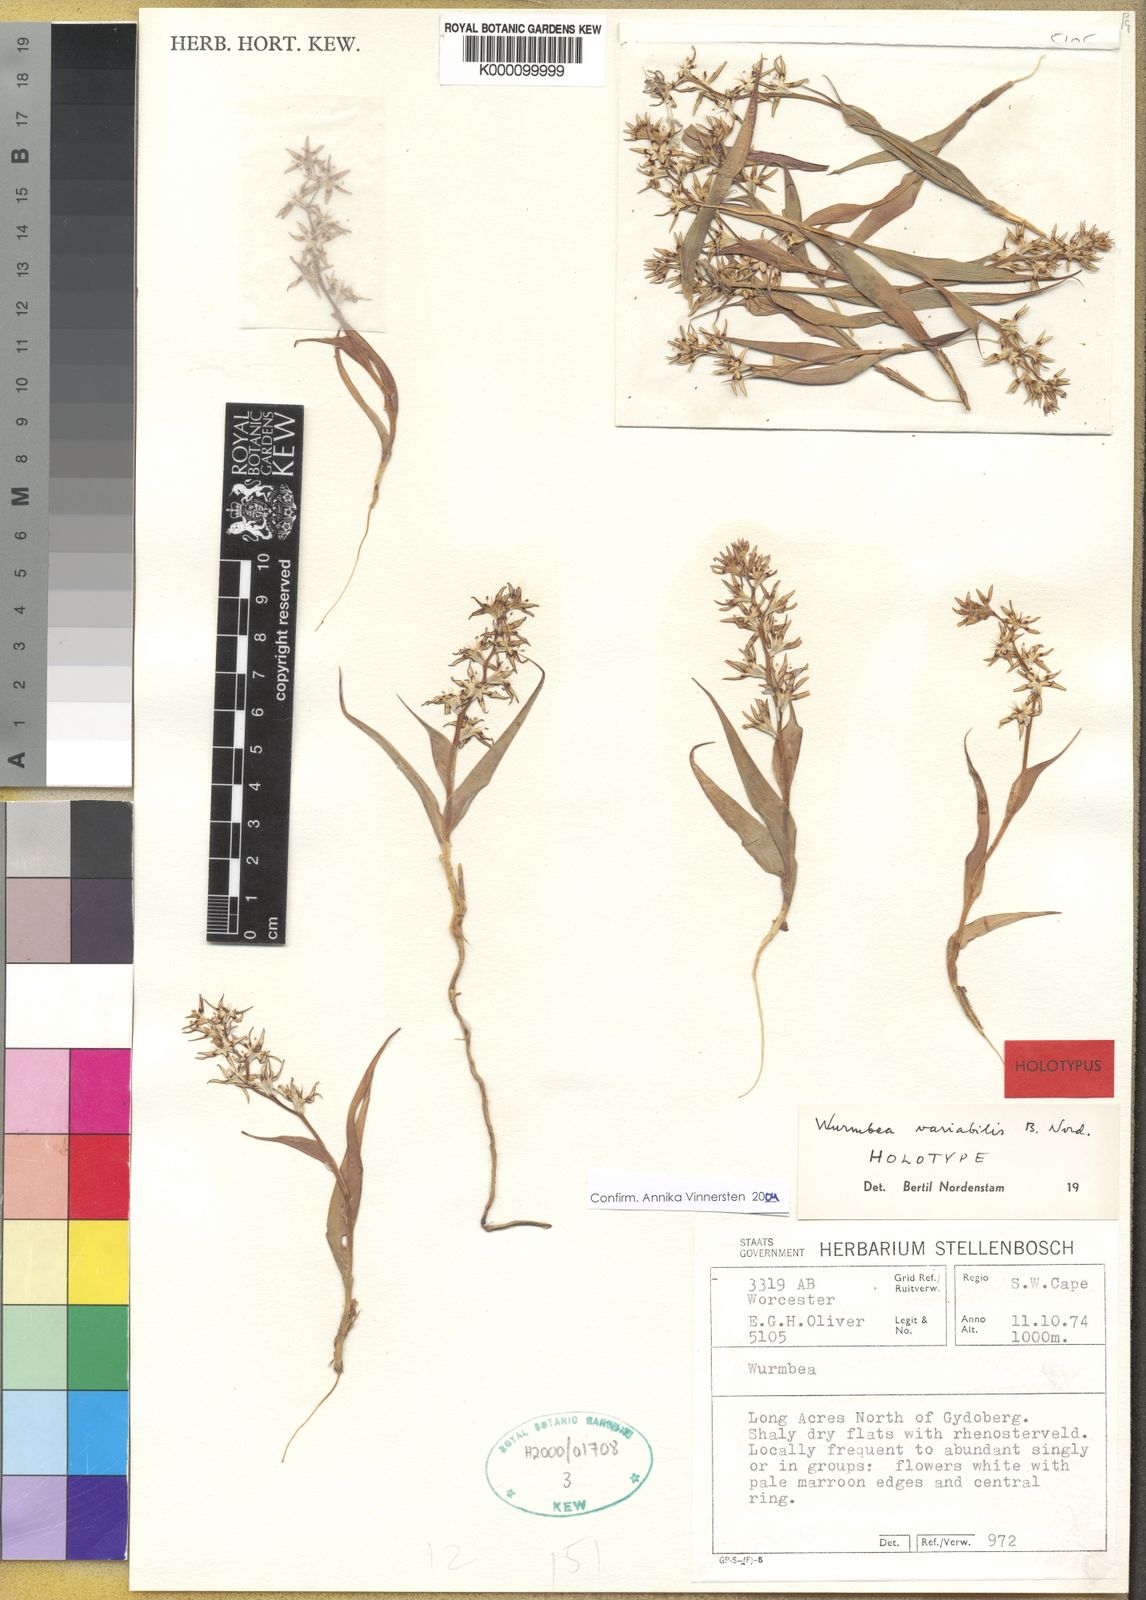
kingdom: Plantae
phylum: Tracheophyta
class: Liliopsida
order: Liliales
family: Colchicaceae
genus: Wurmbea
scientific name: Wurmbea variabilis
